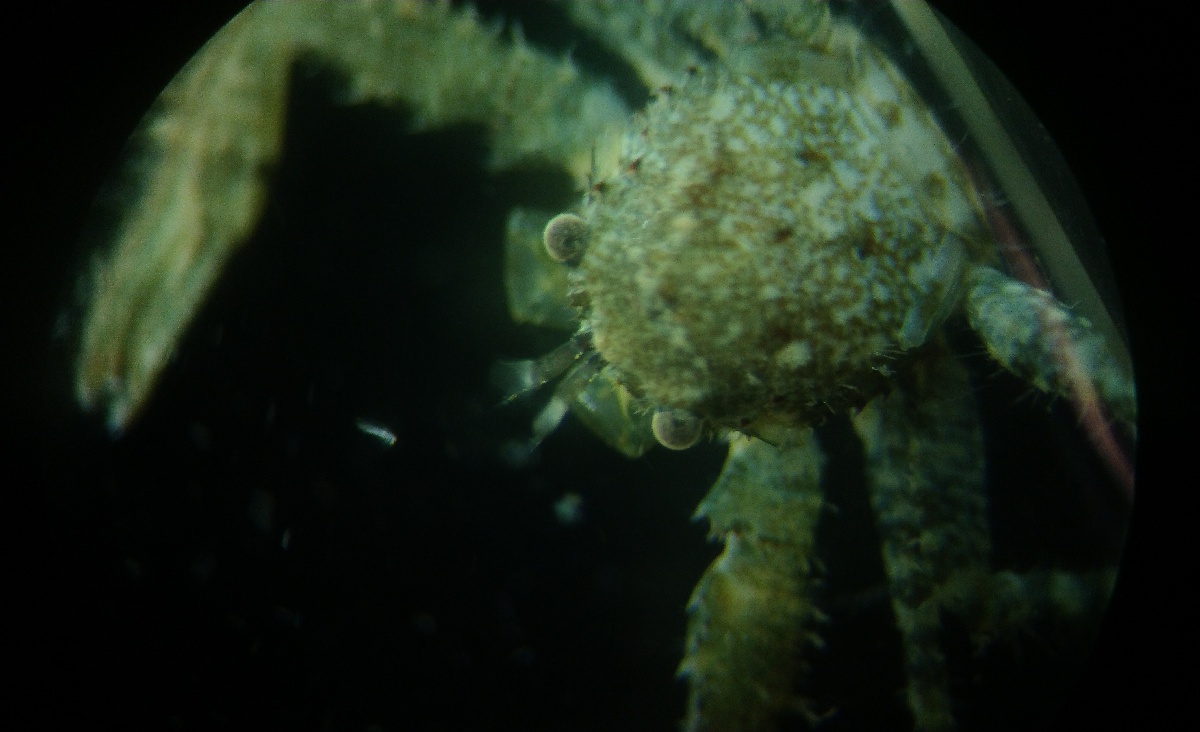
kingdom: Animalia
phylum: Arthropoda
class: Malacostraca
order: Decapoda
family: Porcellanidae
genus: Pisidia
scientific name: Pisidia longimana
